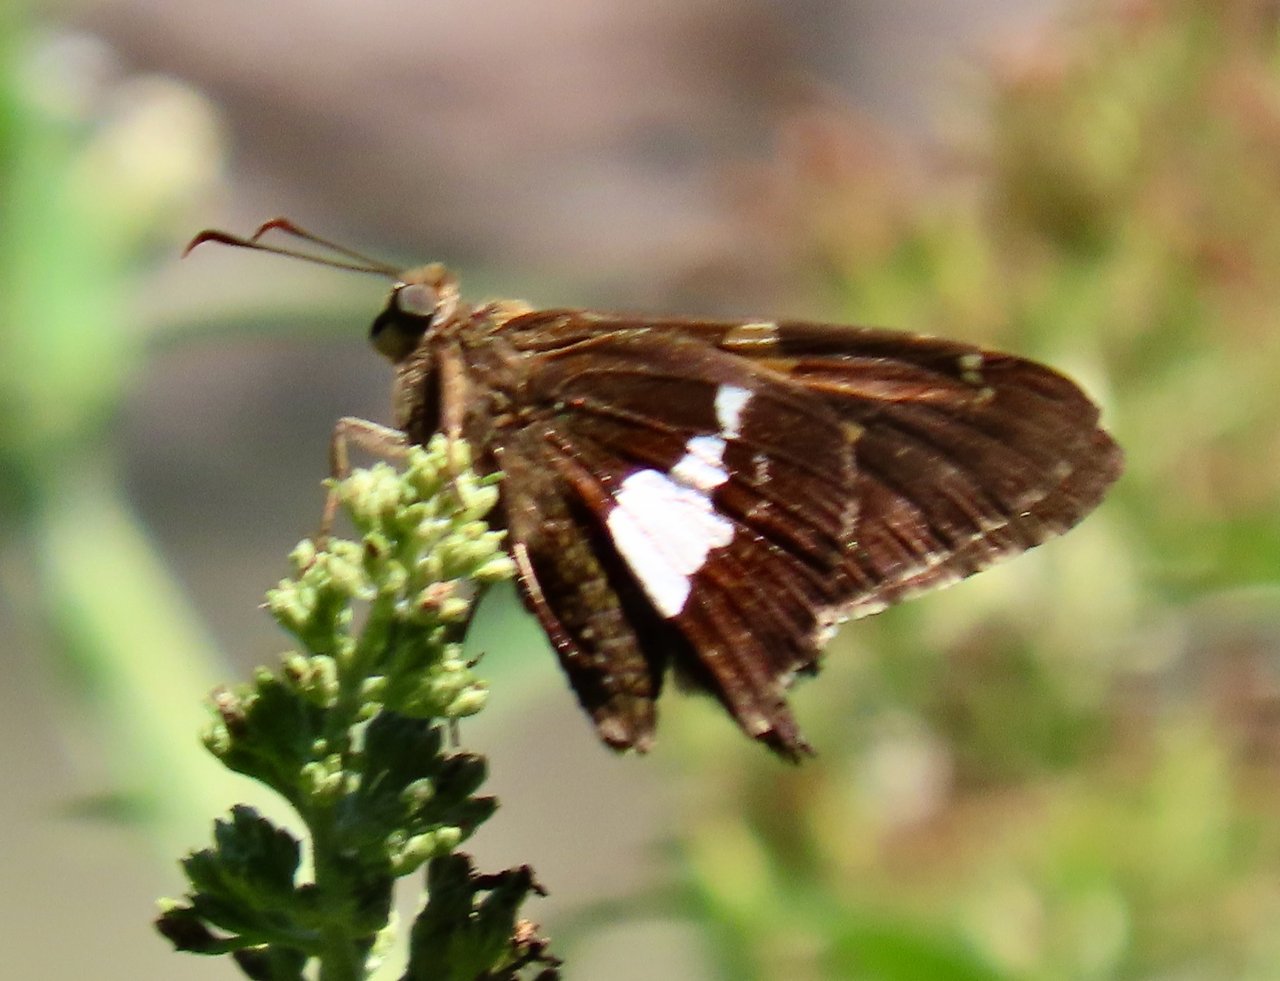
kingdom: Animalia
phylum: Arthropoda
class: Insecta
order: Lepidoptera
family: Hesperiidae
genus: Epargyreus
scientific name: Epargyreus clarus
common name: Silver-spotted Skipper
